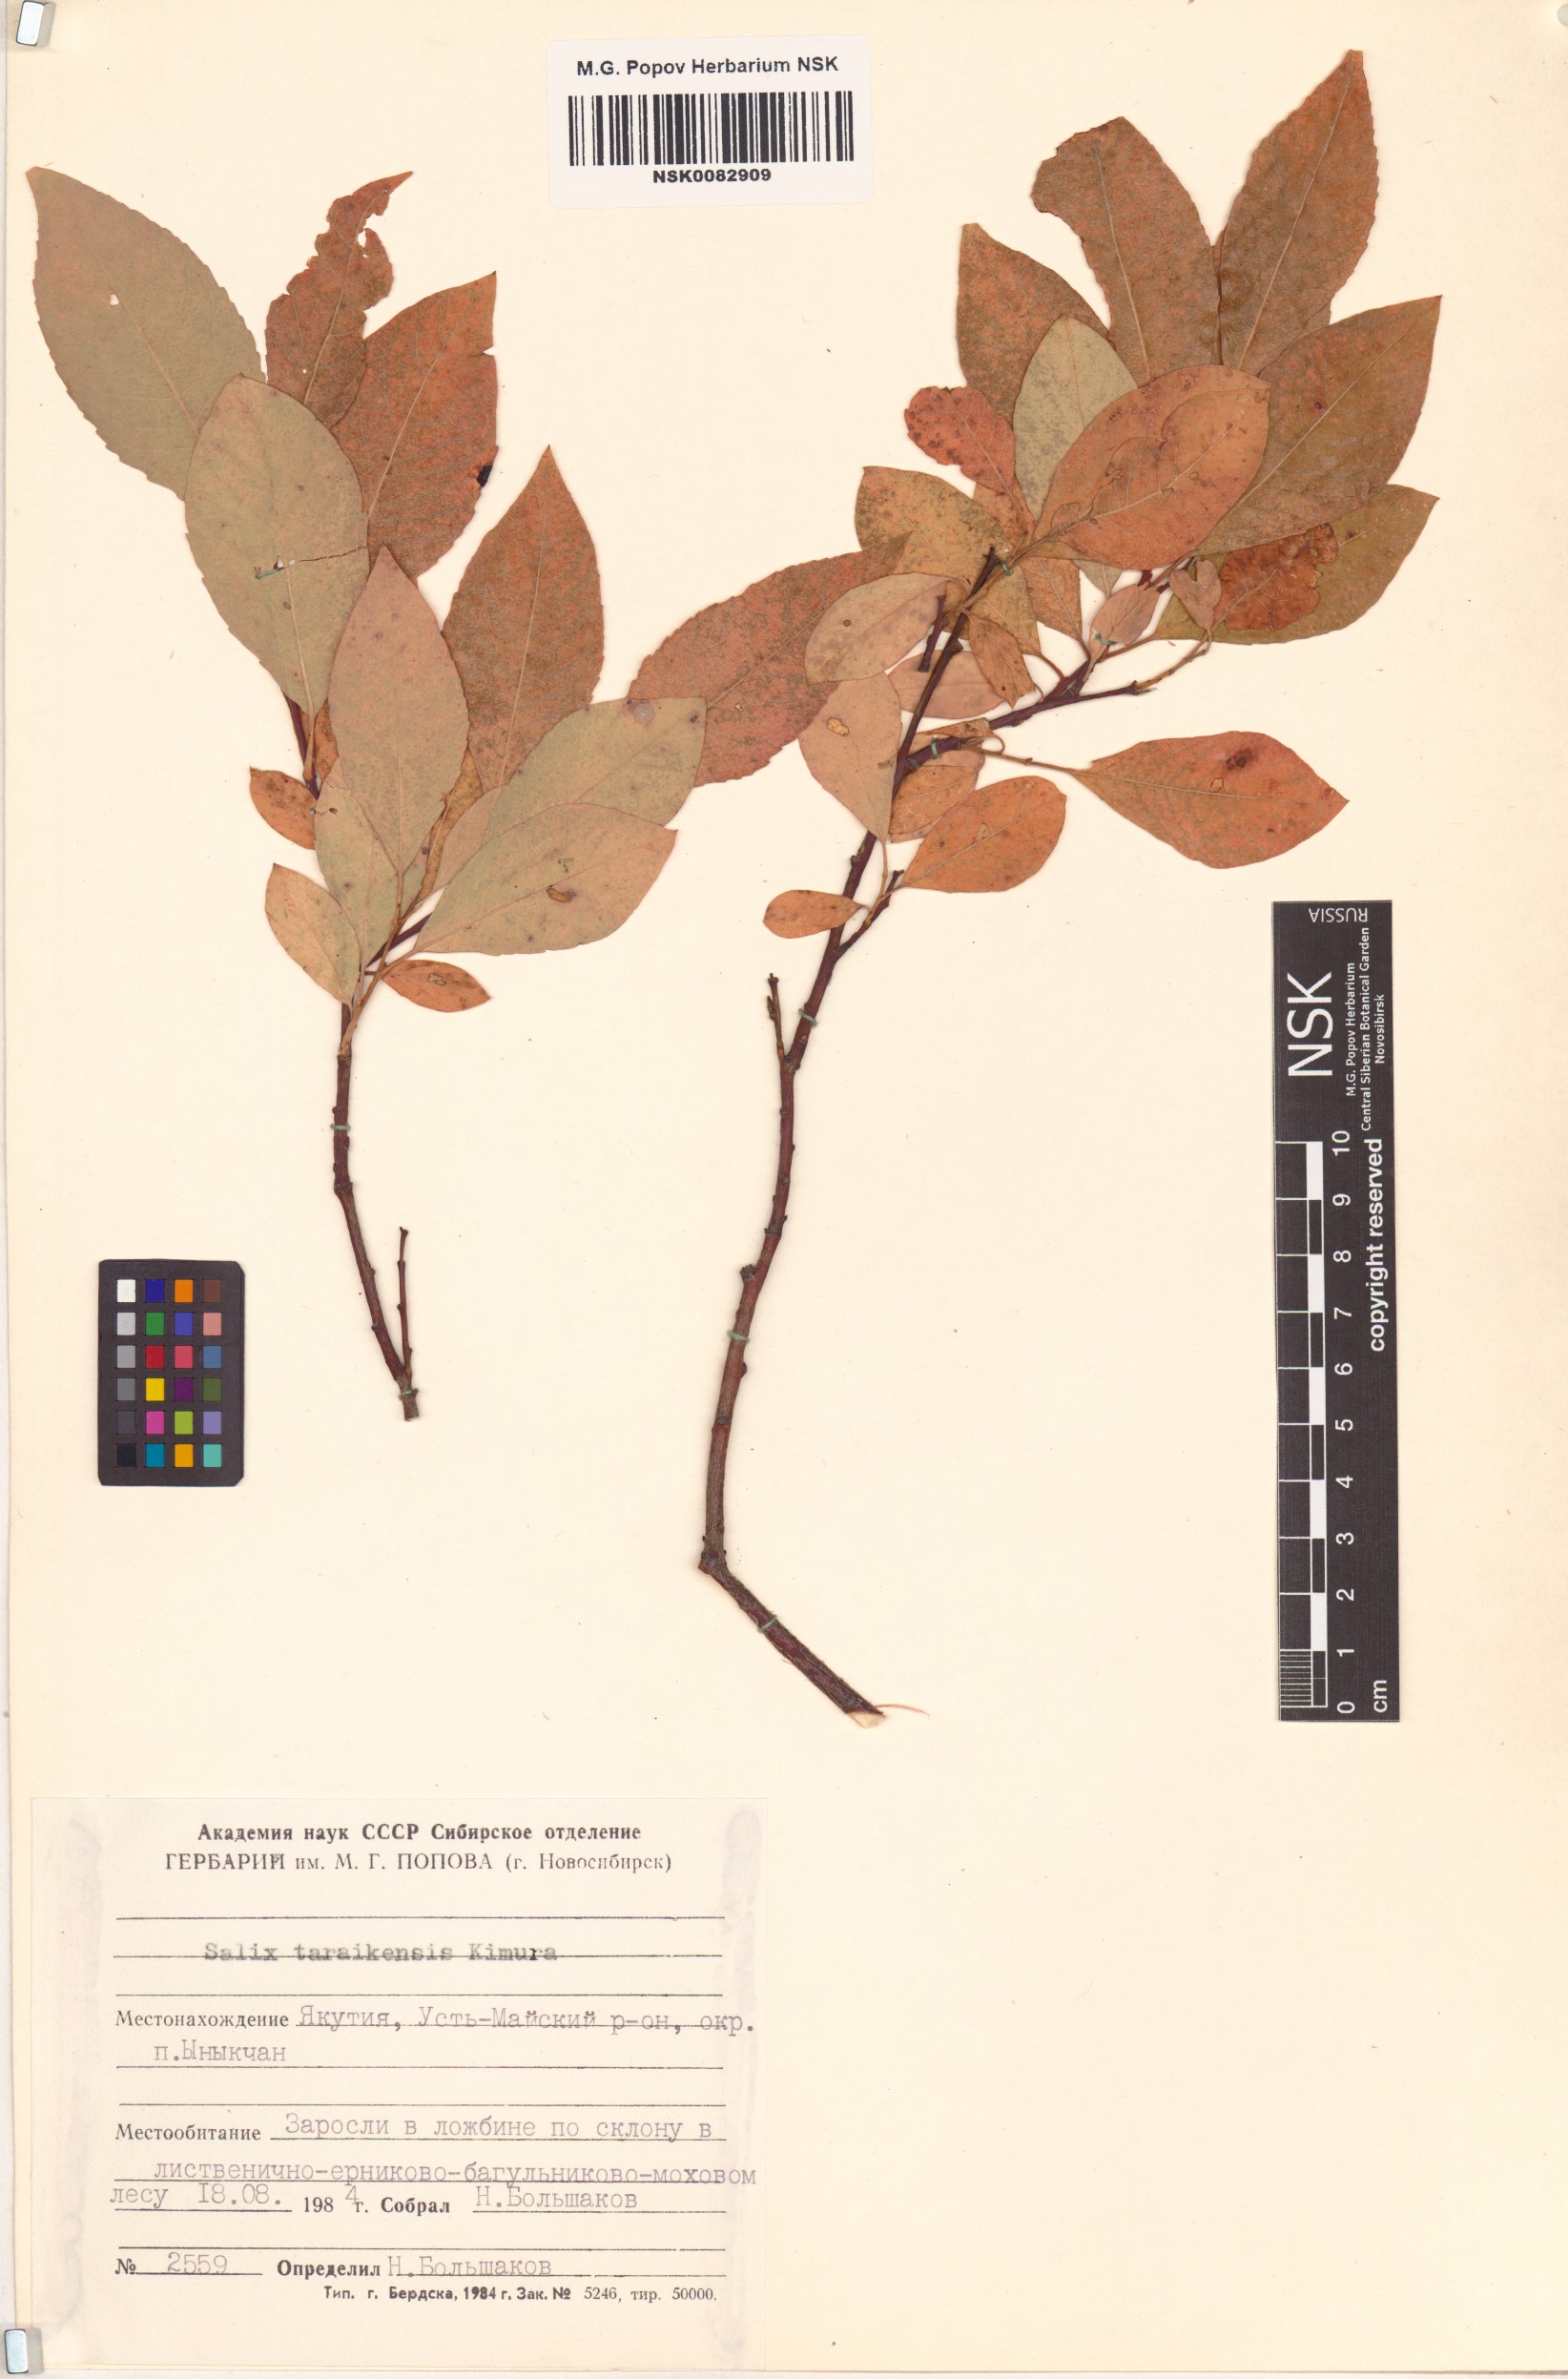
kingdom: Plantae
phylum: Tracheophyta
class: Magnoliopsida
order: Malpighiales
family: Salicaceae
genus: Salix
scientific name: Salix taraikensis
